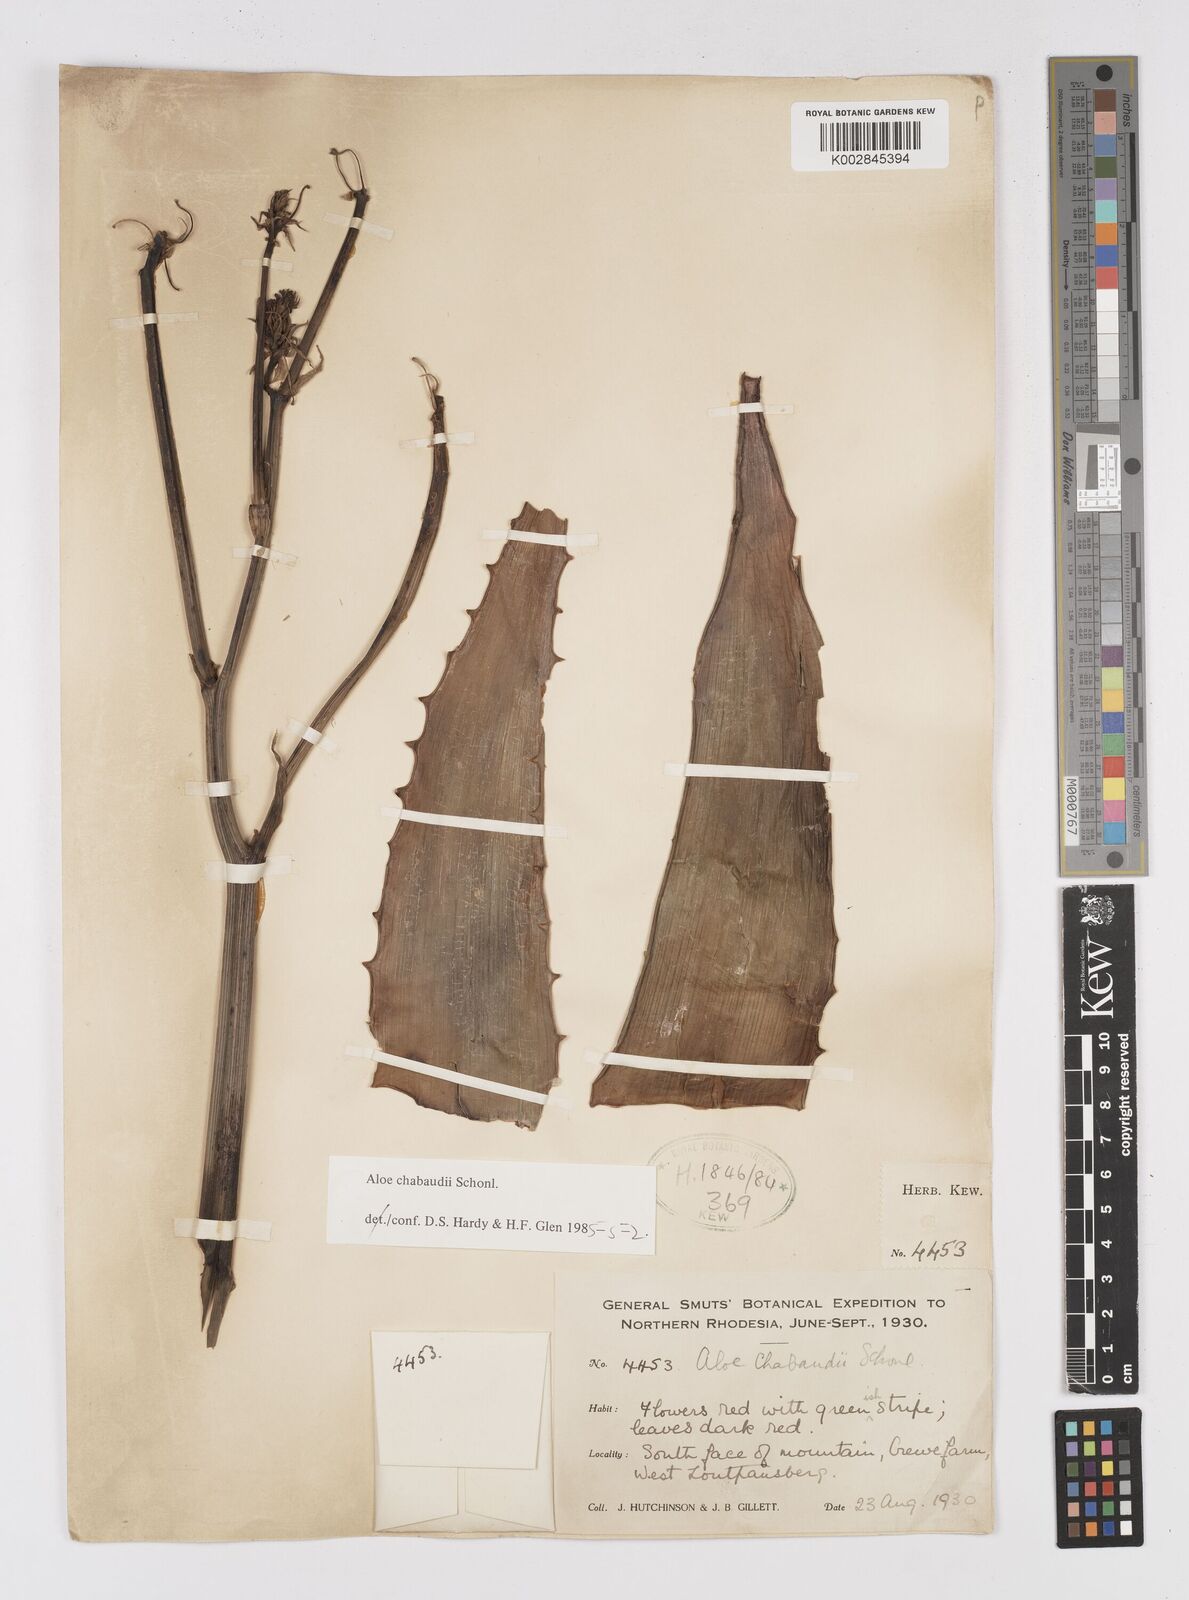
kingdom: Plantae
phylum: Tracheophyta
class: Liliopsida
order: Asparagales
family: Asphodelaceae
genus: Aloe
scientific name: Aloe chabaudii
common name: Chabaud's aloe
